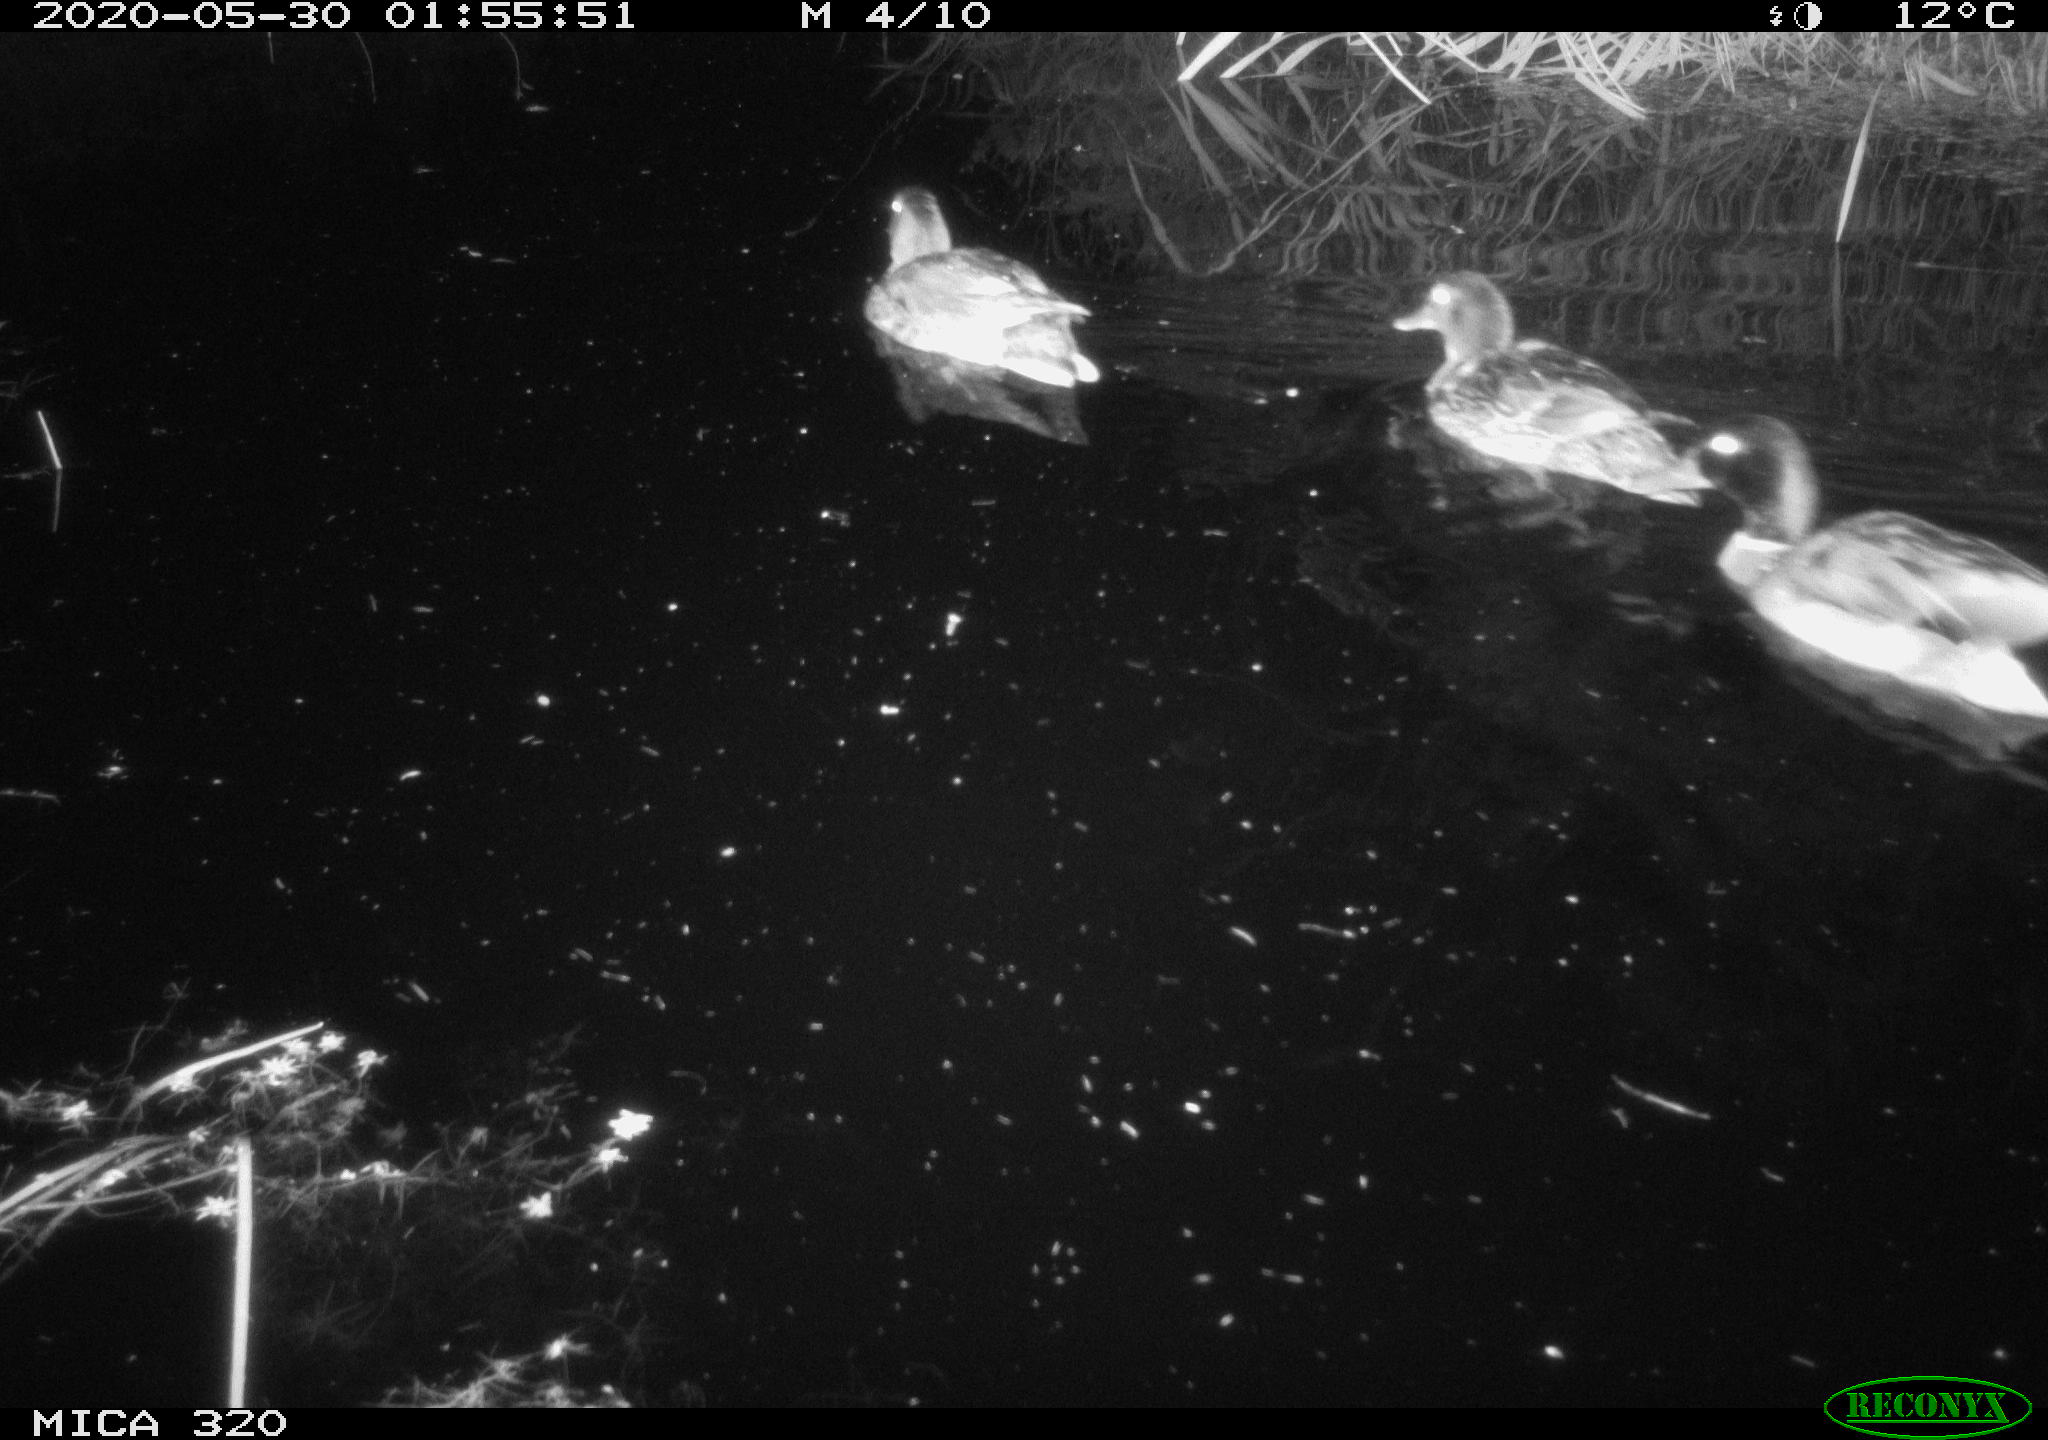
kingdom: Animalia
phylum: Chordata
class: Aves
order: Anseriformes
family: Anatidae
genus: Anas
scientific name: Anas platyrhynchos
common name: Mallard
